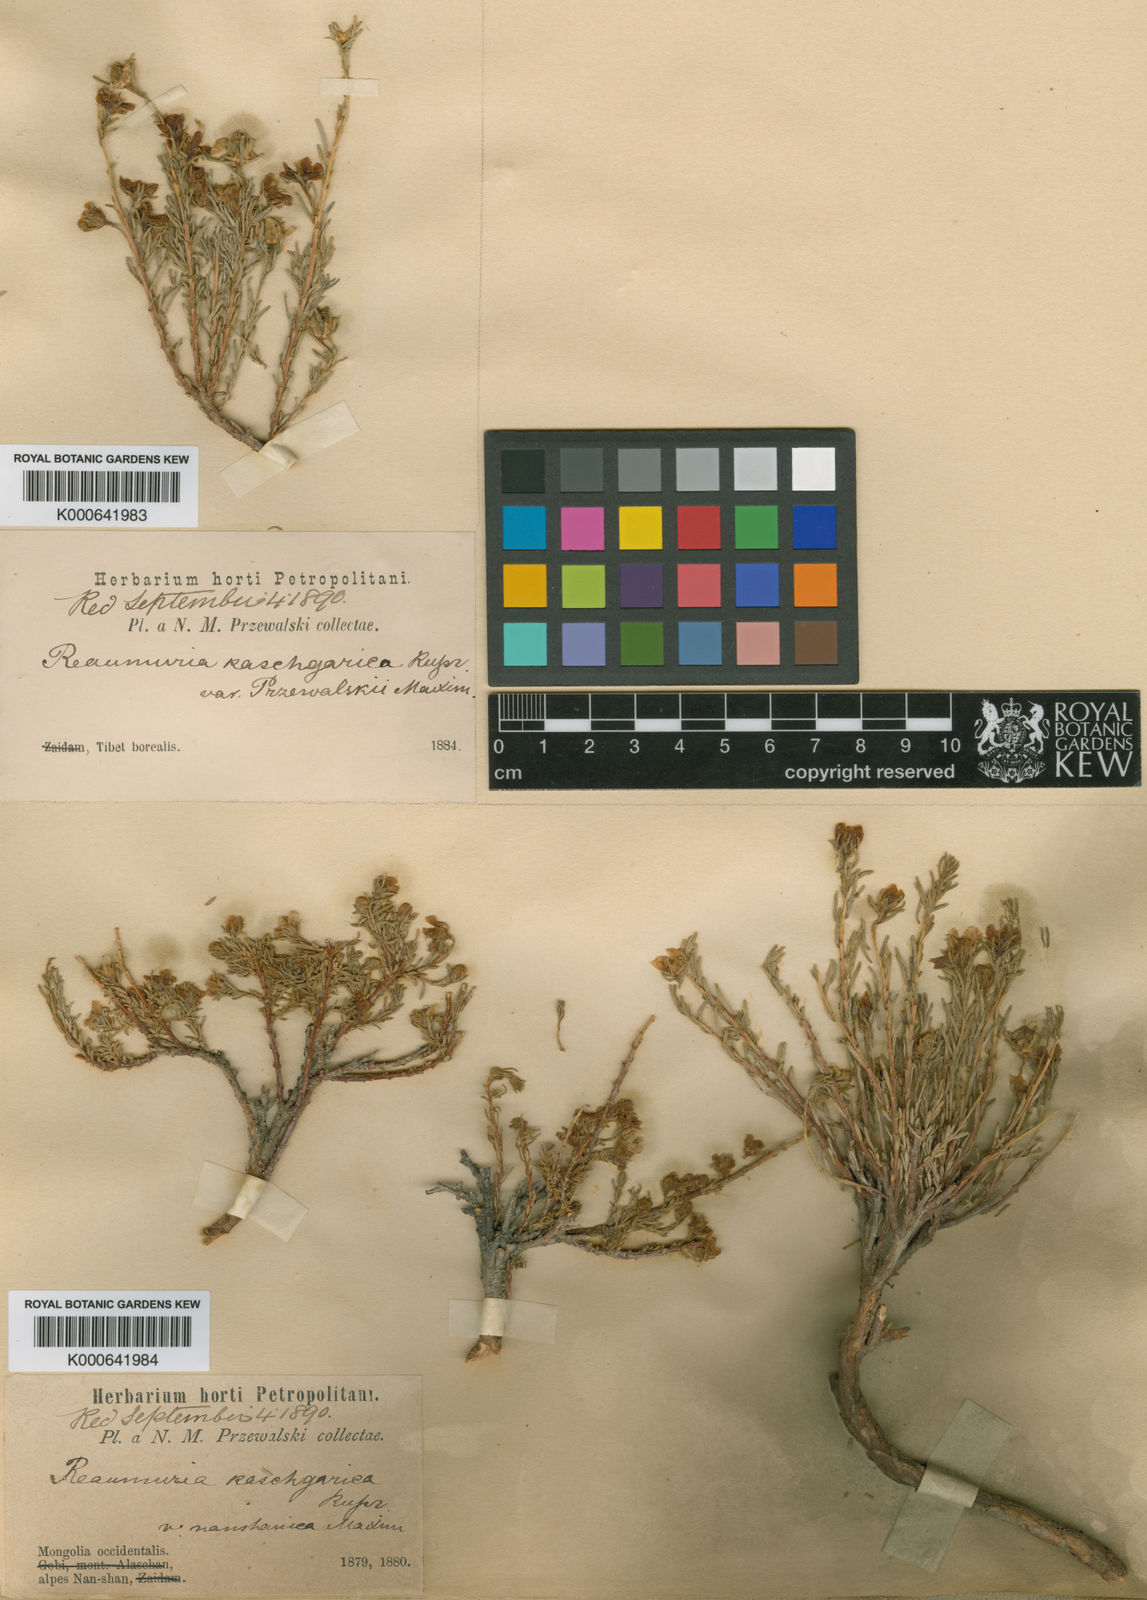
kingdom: Plantae
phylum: Tracheophyta
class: Magnoliopsida
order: Caryophyllales
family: Tamaricaceae
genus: Reaumuria
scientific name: Reaumuria kaschgarica
